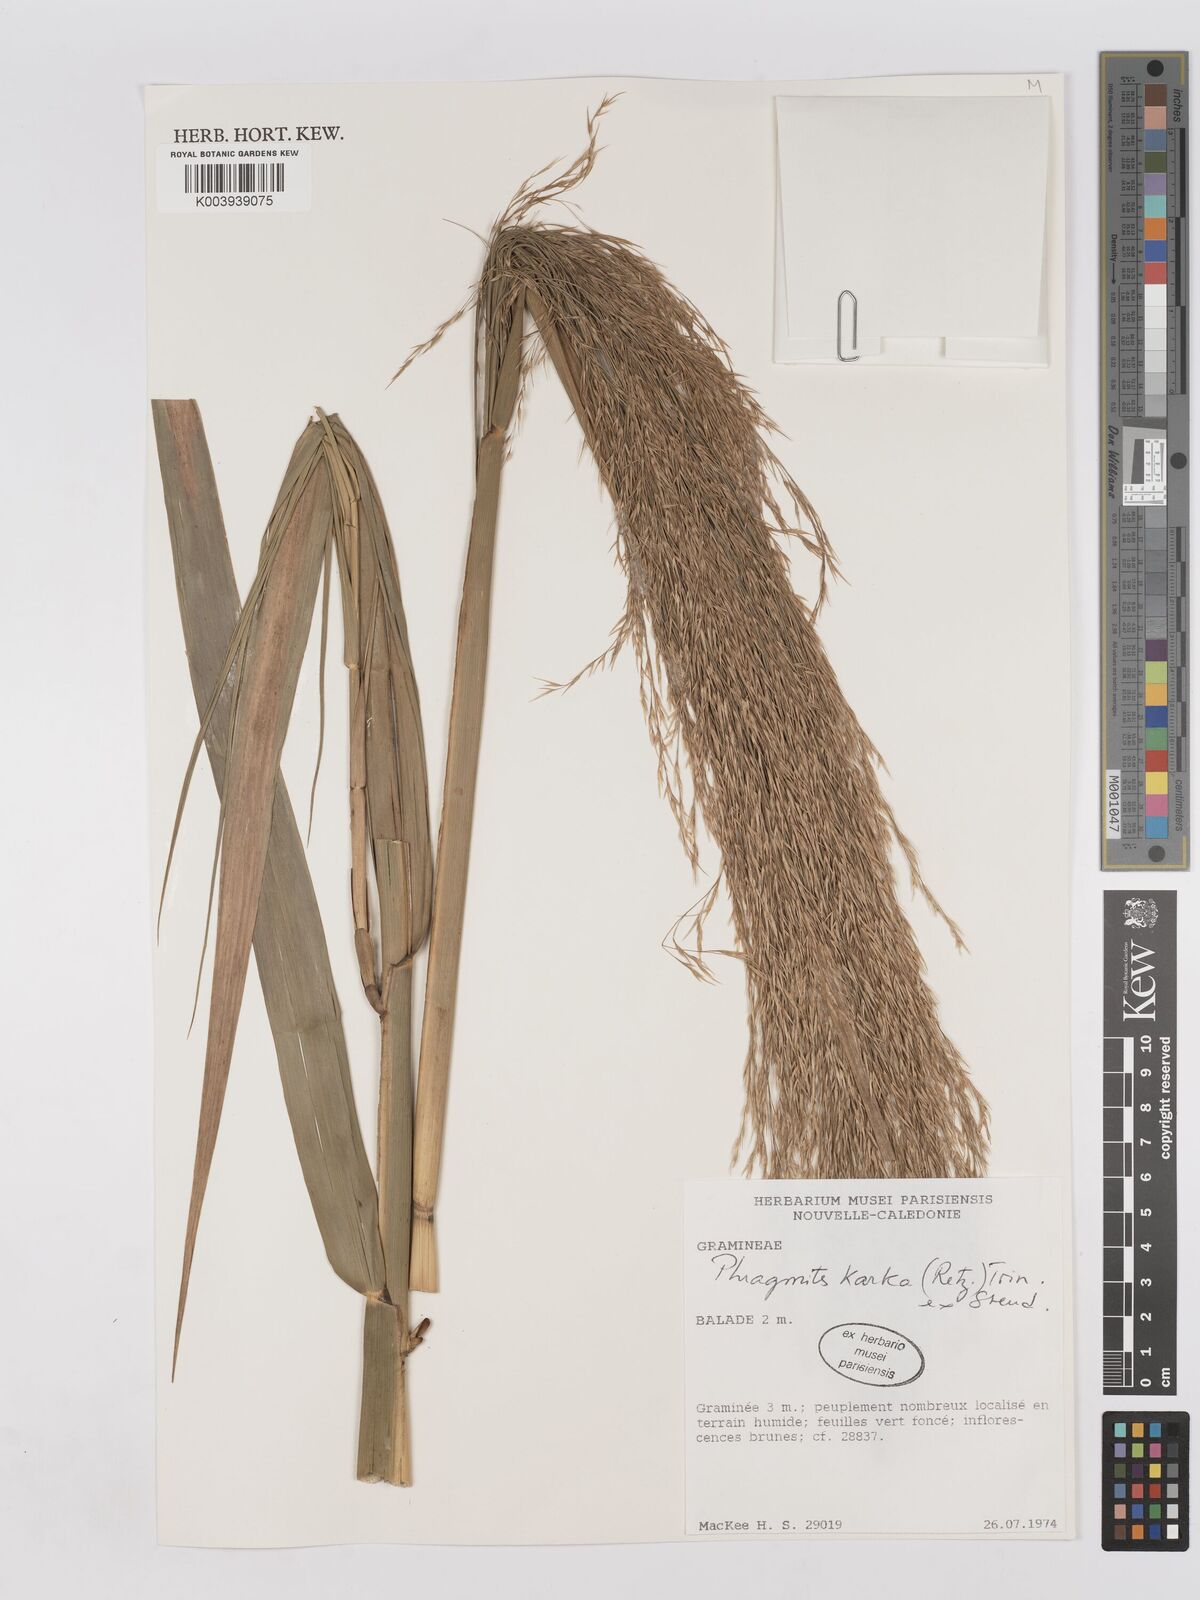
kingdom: Plantae
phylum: Tracheophyta
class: Liliopsida
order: Poales
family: Poaceae
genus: Phragmites
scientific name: Phragmites karka
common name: Tropical reed
